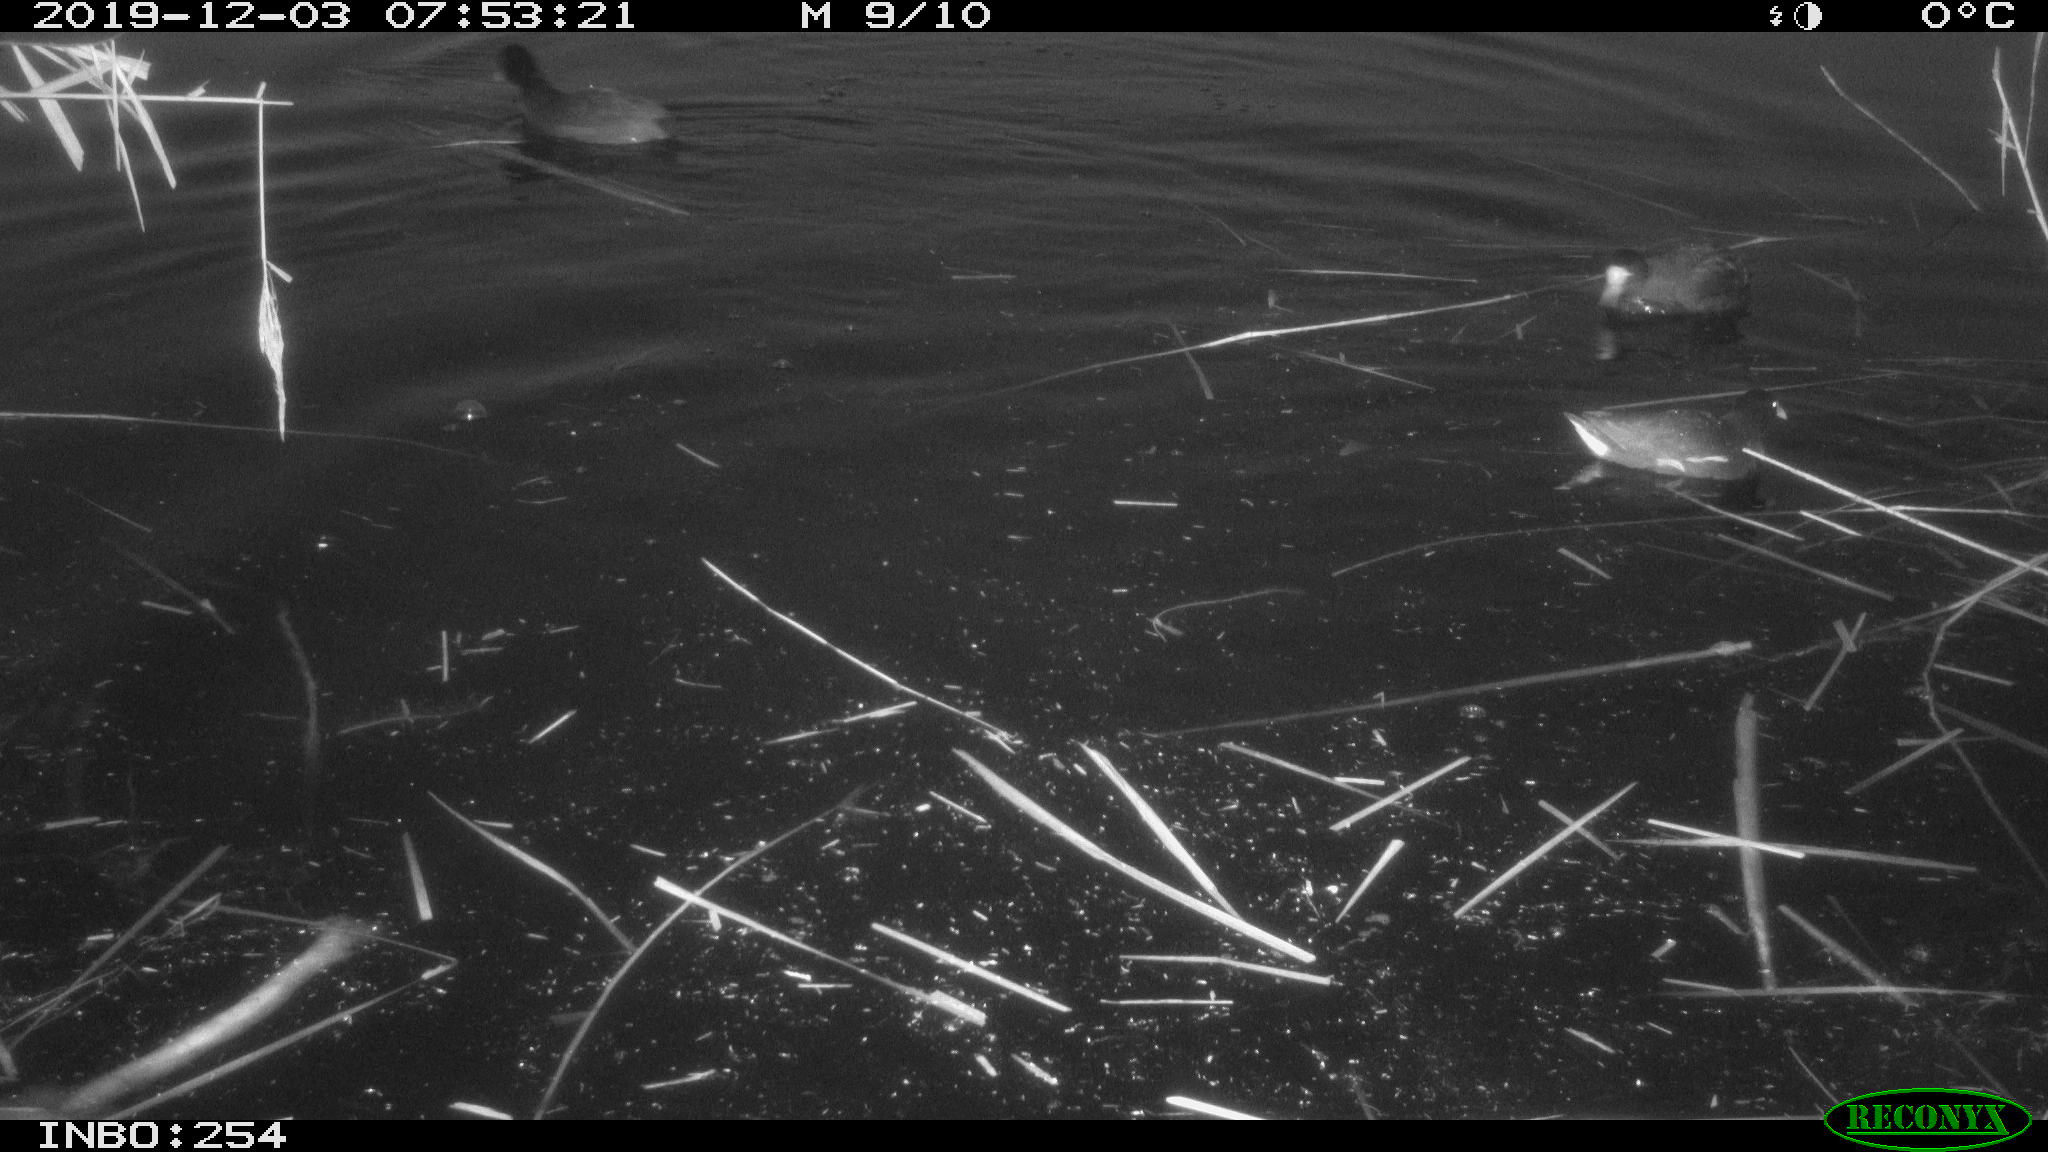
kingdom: Animalia
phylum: Chordata
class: Aves
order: Gruiformes
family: Rallidae
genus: Gallinula
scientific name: Gallinula chloropus
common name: Common moorhen
